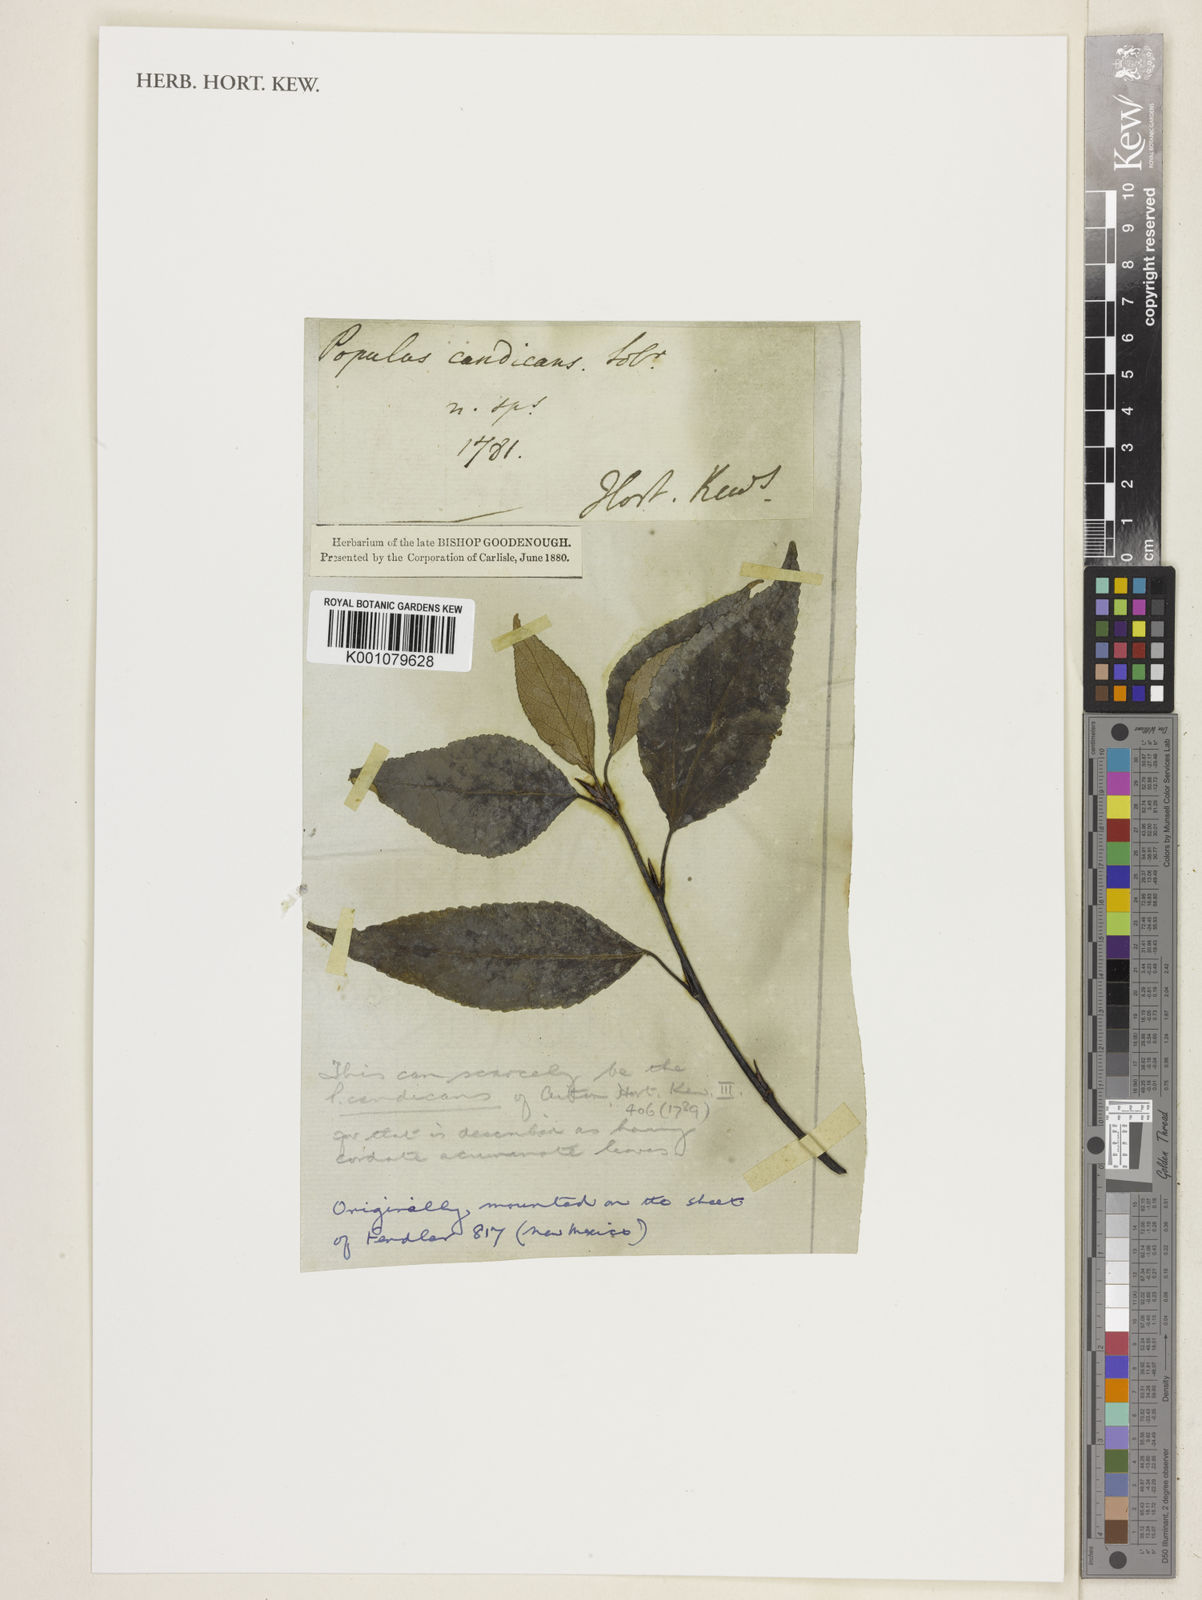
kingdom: Plantae
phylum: Tracheophyta
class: Magnoliopsida
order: Malpighiales
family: Salicaceae
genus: Populus
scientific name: Populus balsamifera
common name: Balsam poplar
